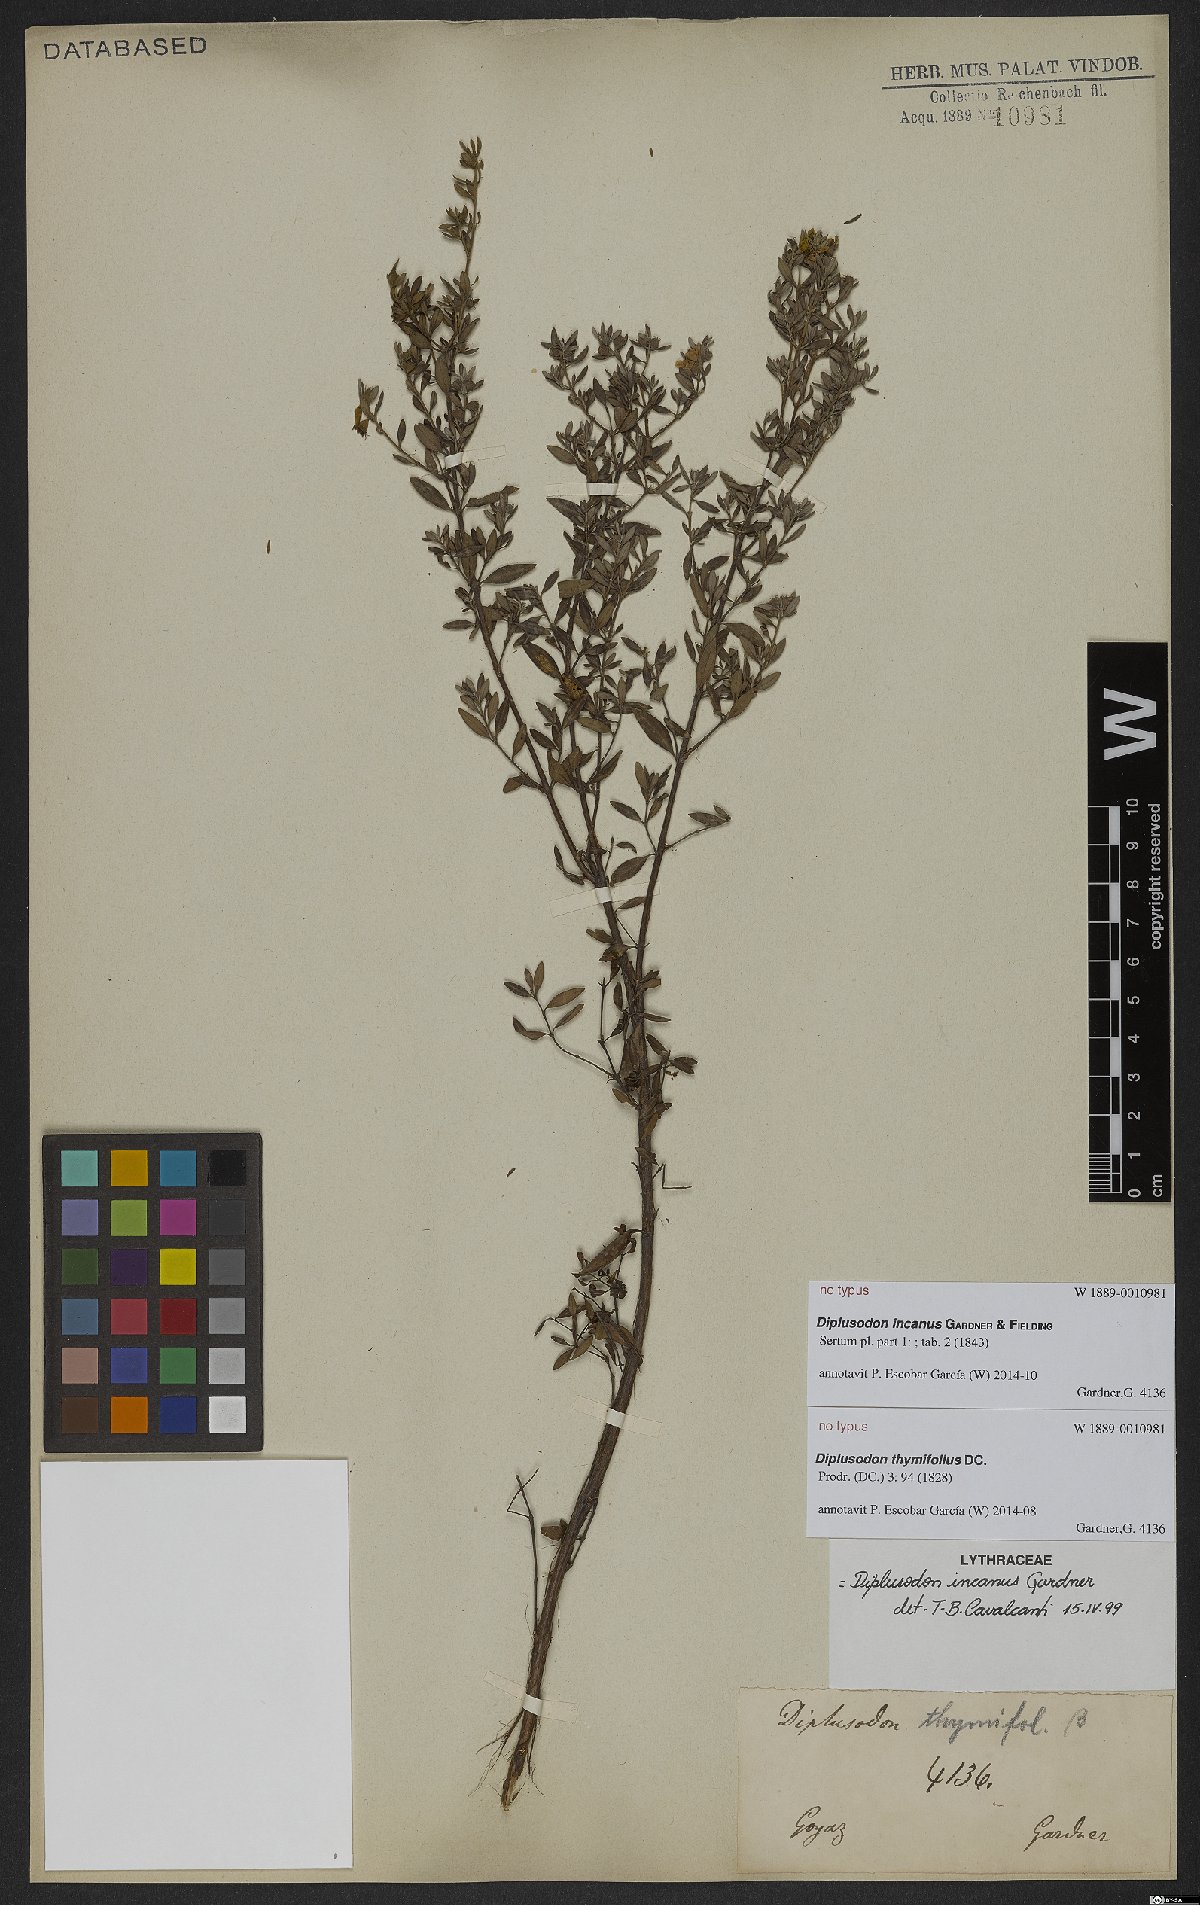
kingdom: Plantae
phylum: Tracheophyta
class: Magnoliopsida
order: Myrtales
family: Lythraceae
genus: Diplusodon
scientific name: Diplusodon incanus
